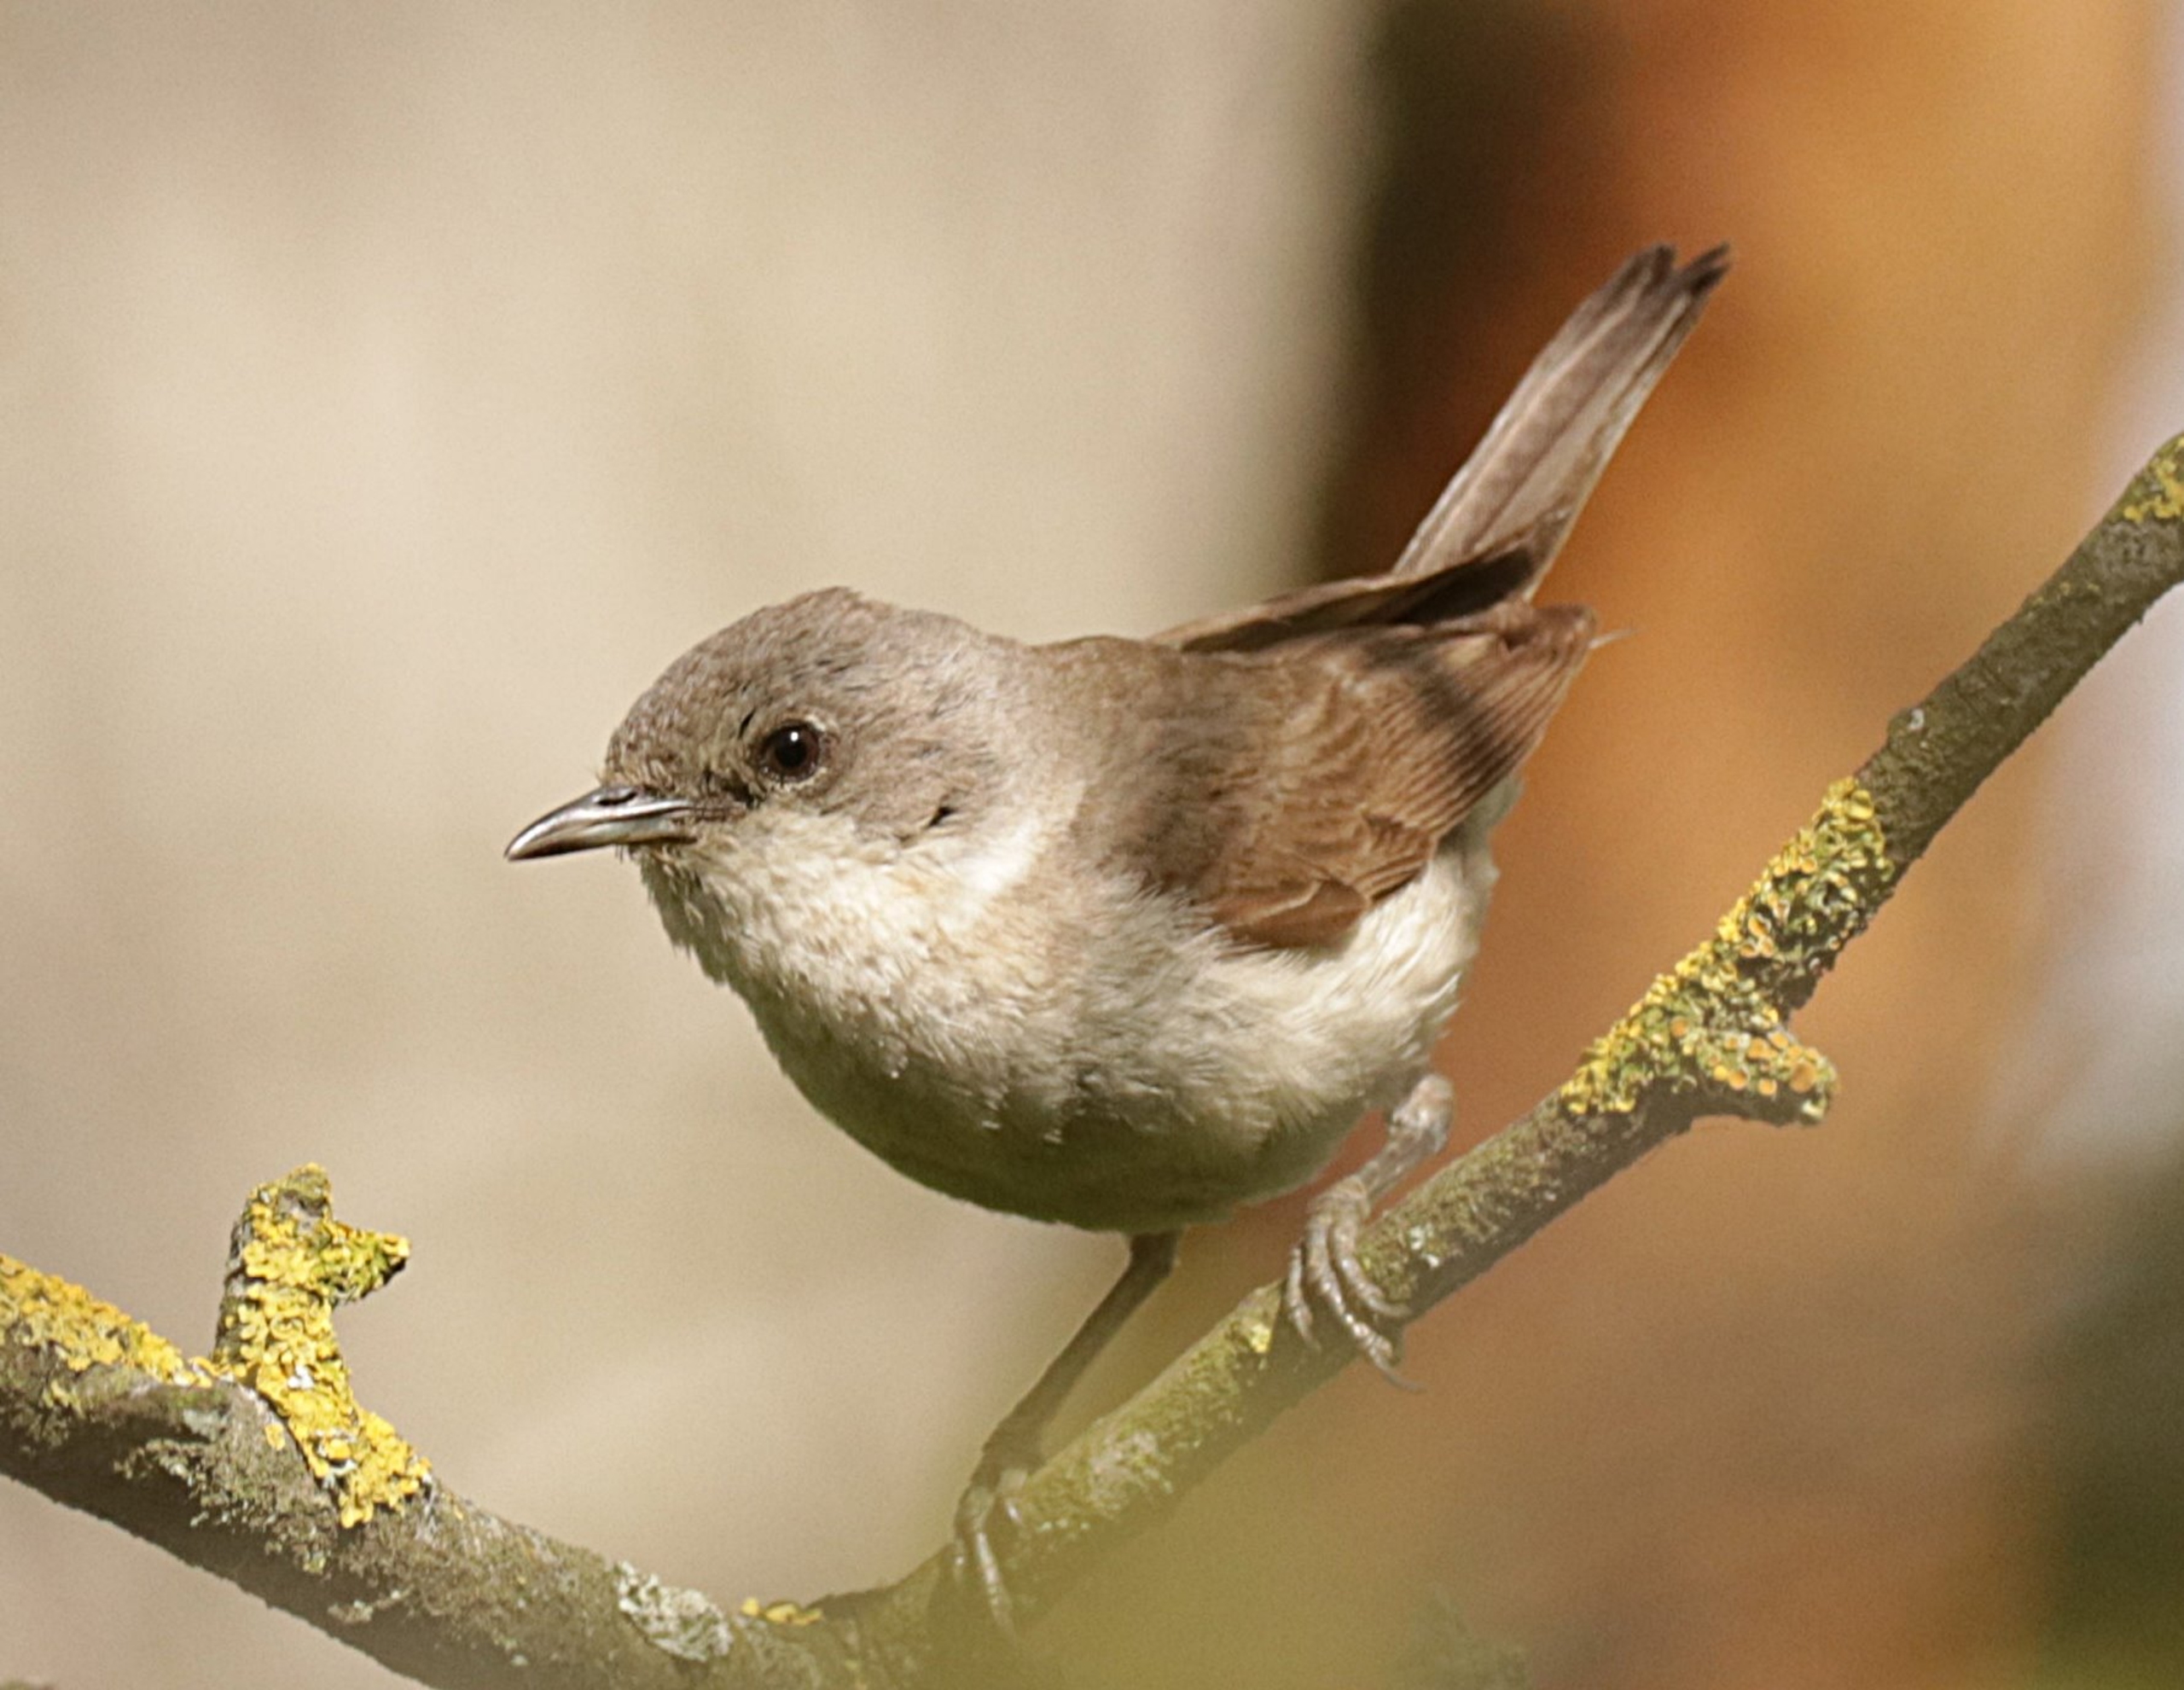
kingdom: Animalia
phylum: Chordata
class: Aves
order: Passeriformes
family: Sylviidae
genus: Sylvia
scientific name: Sylvia curruca
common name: Gærdesanger
